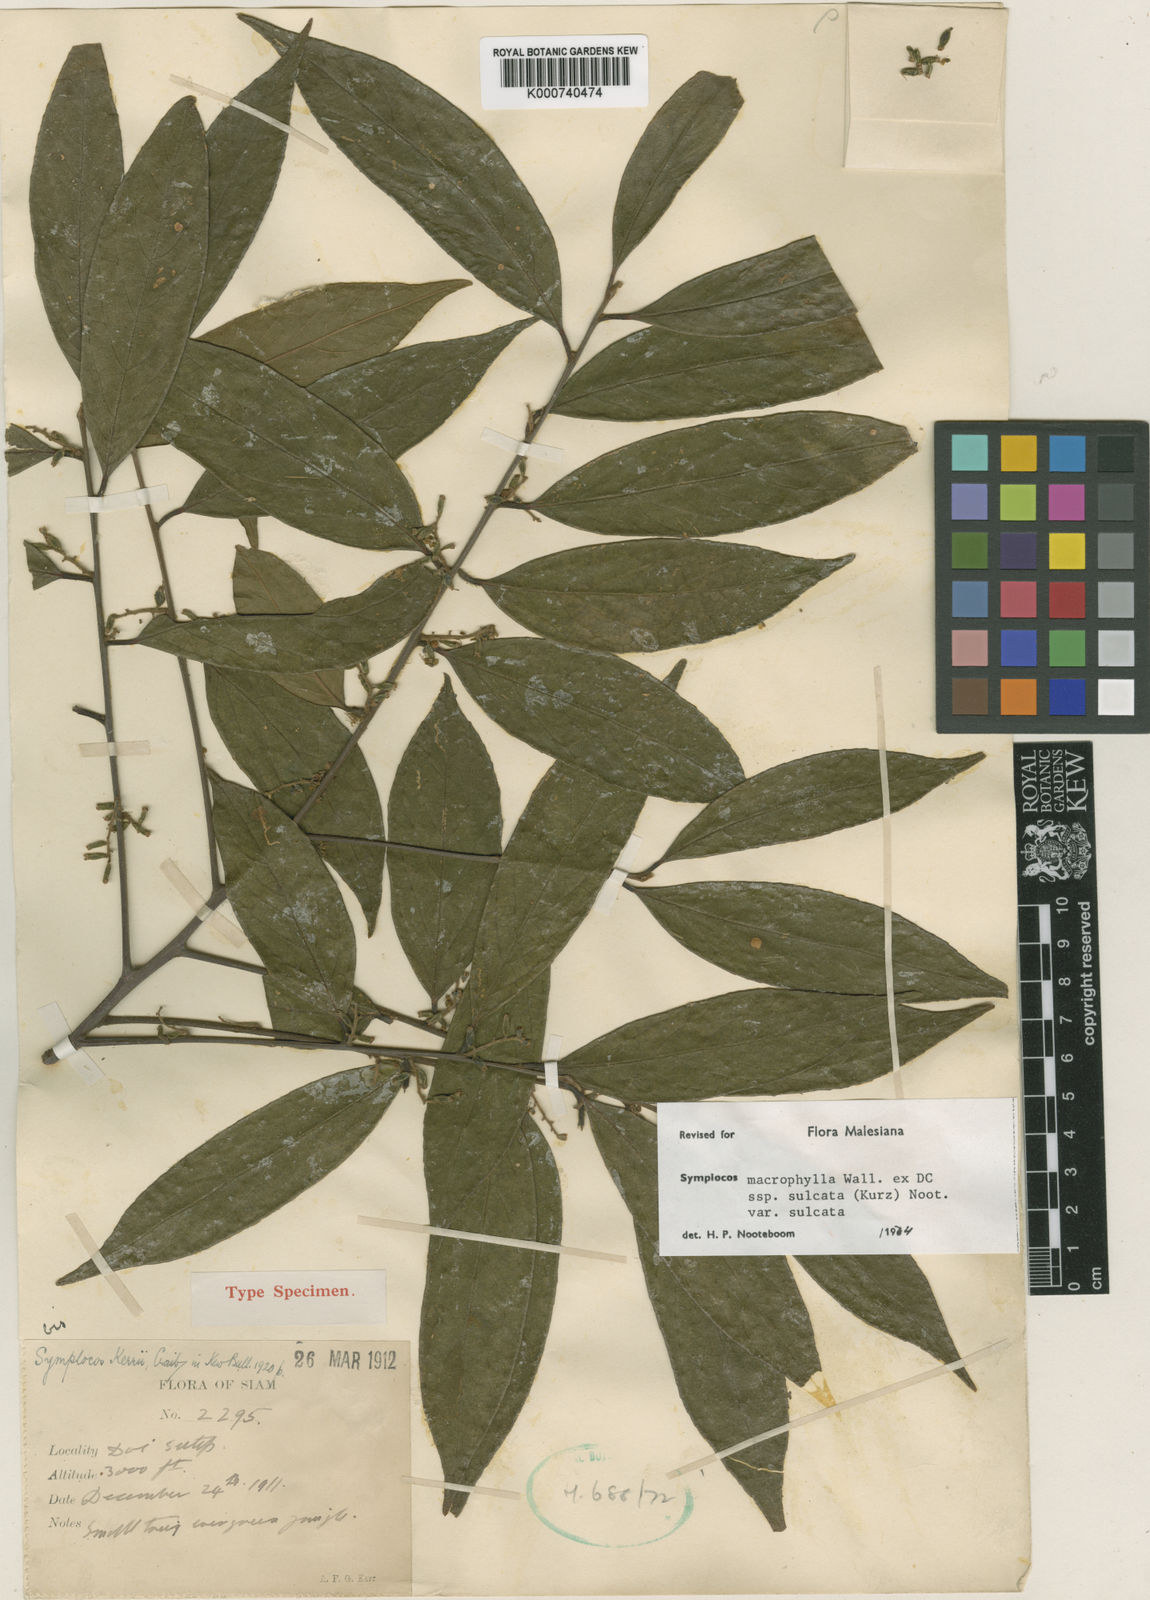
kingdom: Plantae
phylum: Tracheophyta
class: Magnoliopsida
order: Ericales
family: Symplocaceae
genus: Symplocos
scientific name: Symplocos sulcata
